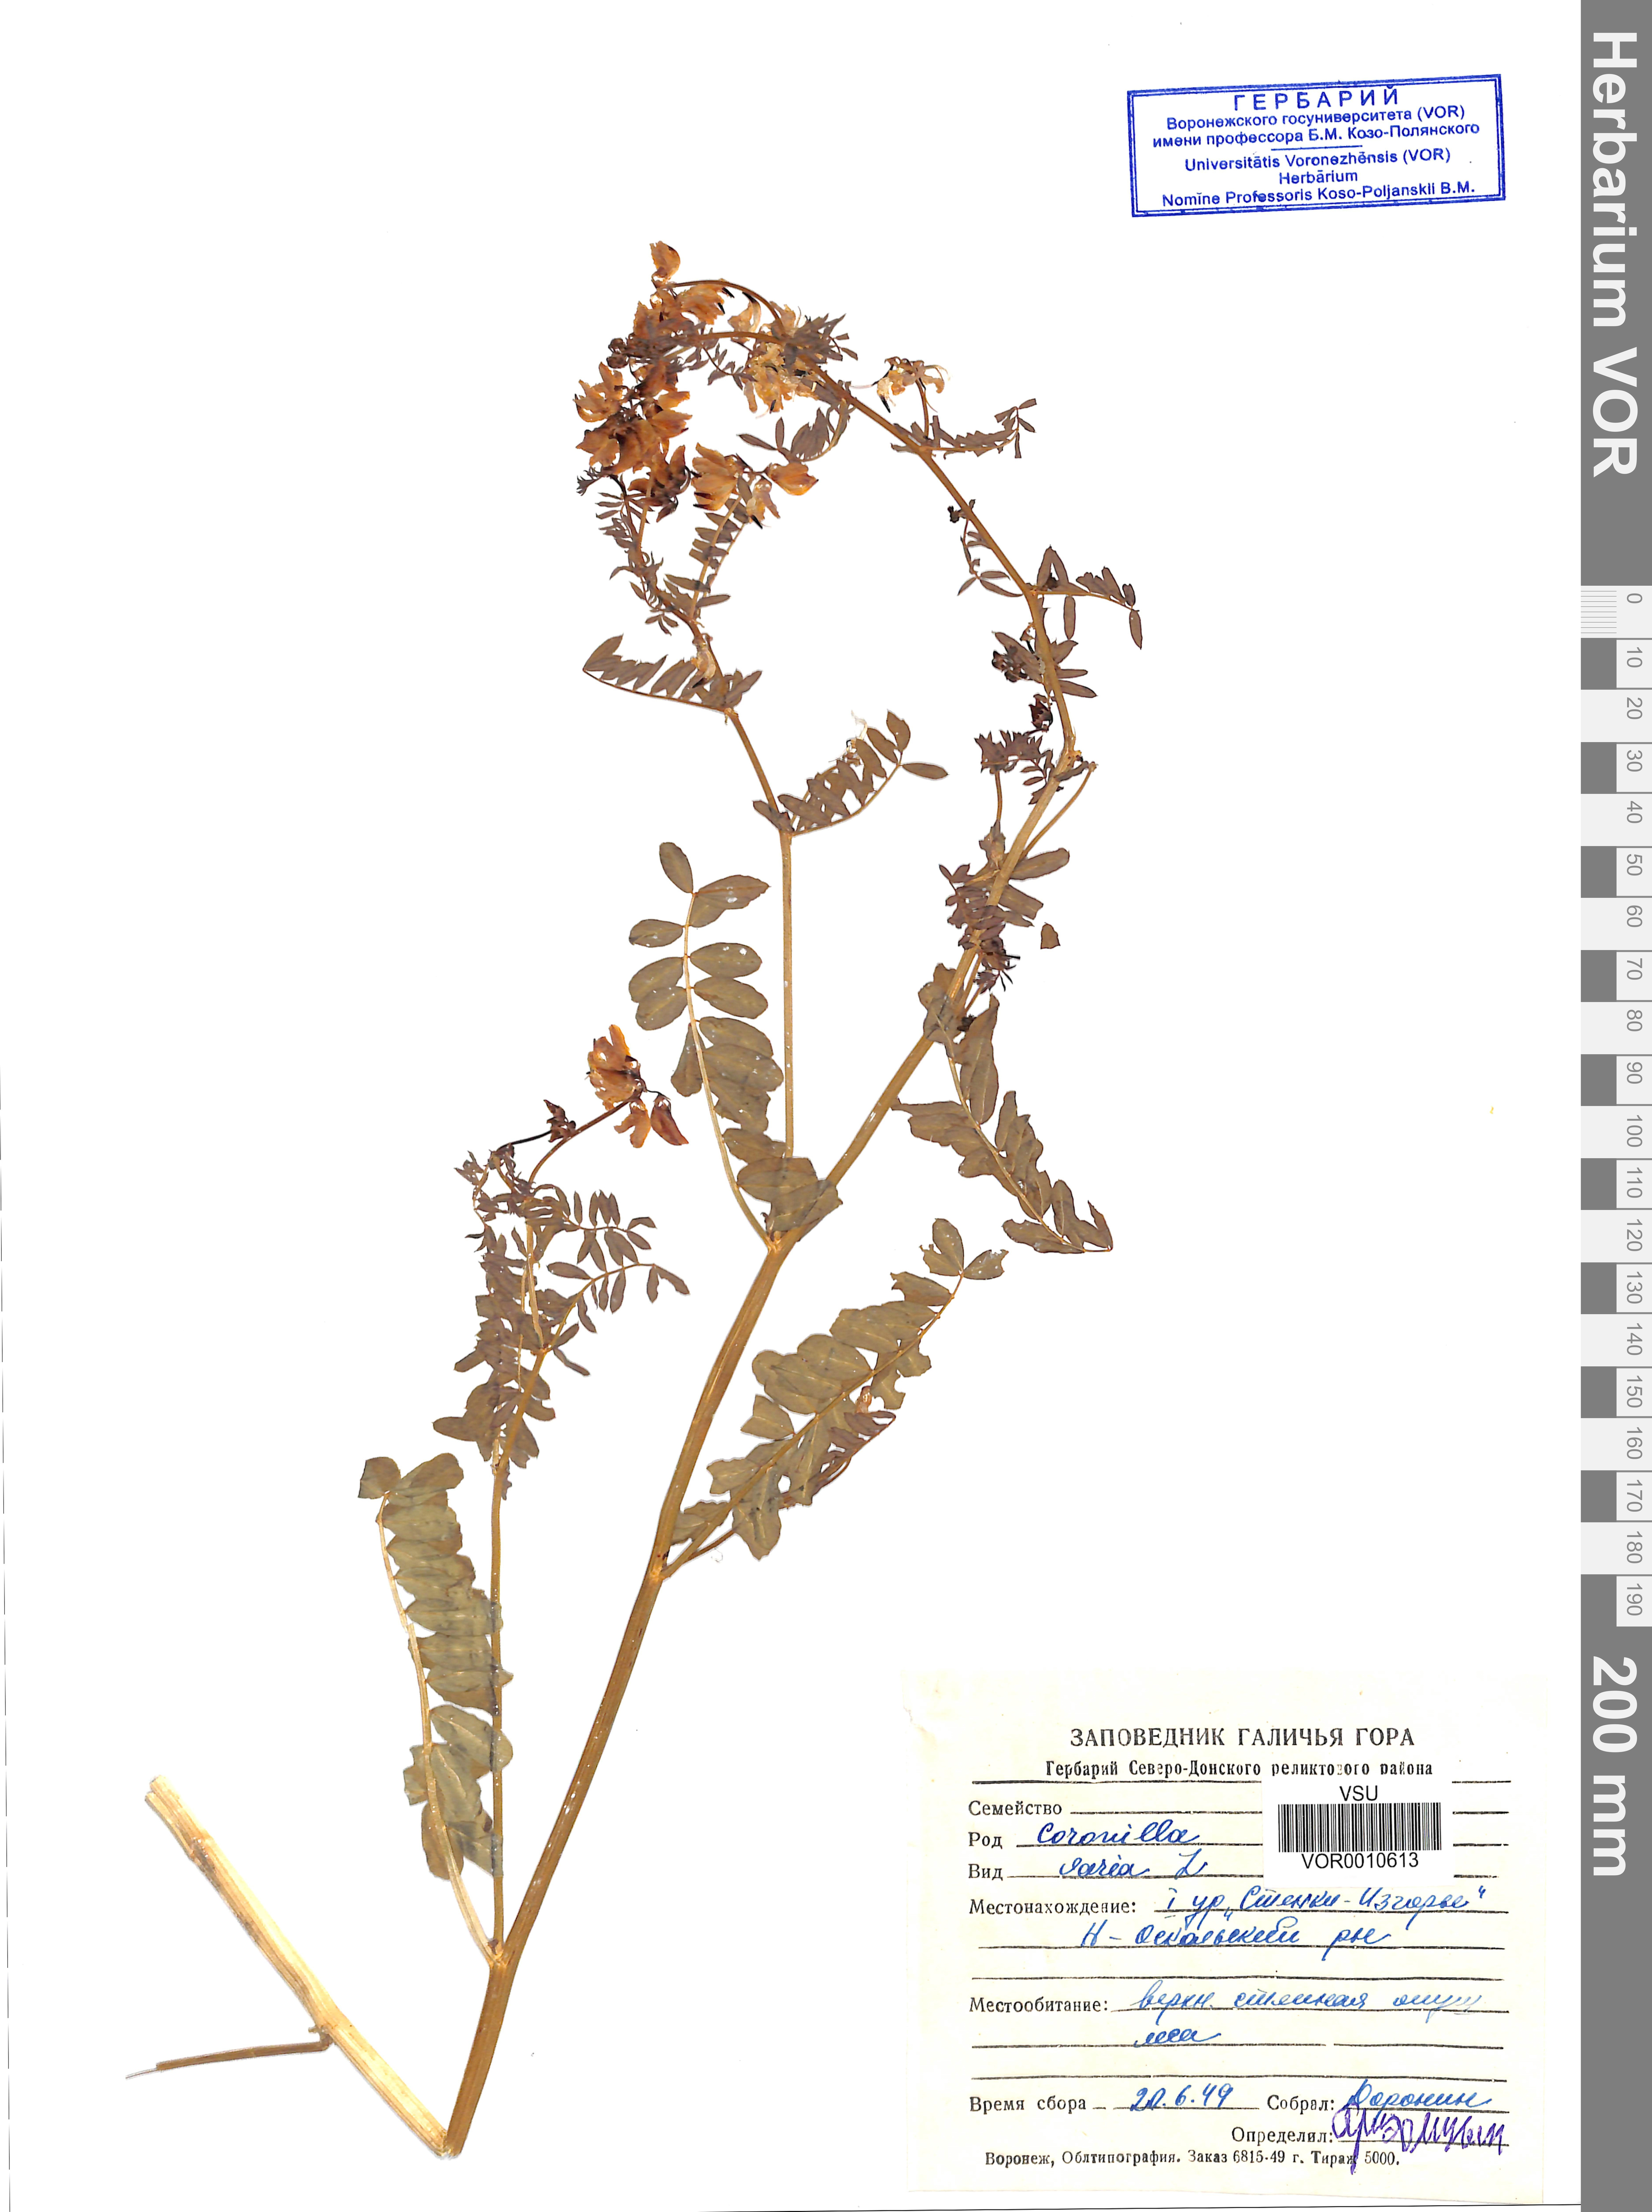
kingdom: Plantae
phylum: Tracheophyta
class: Magnoliopsida
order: Fabales
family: Fabaceae
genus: Coronilla
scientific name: Coronilla varia
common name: Crownvetch
